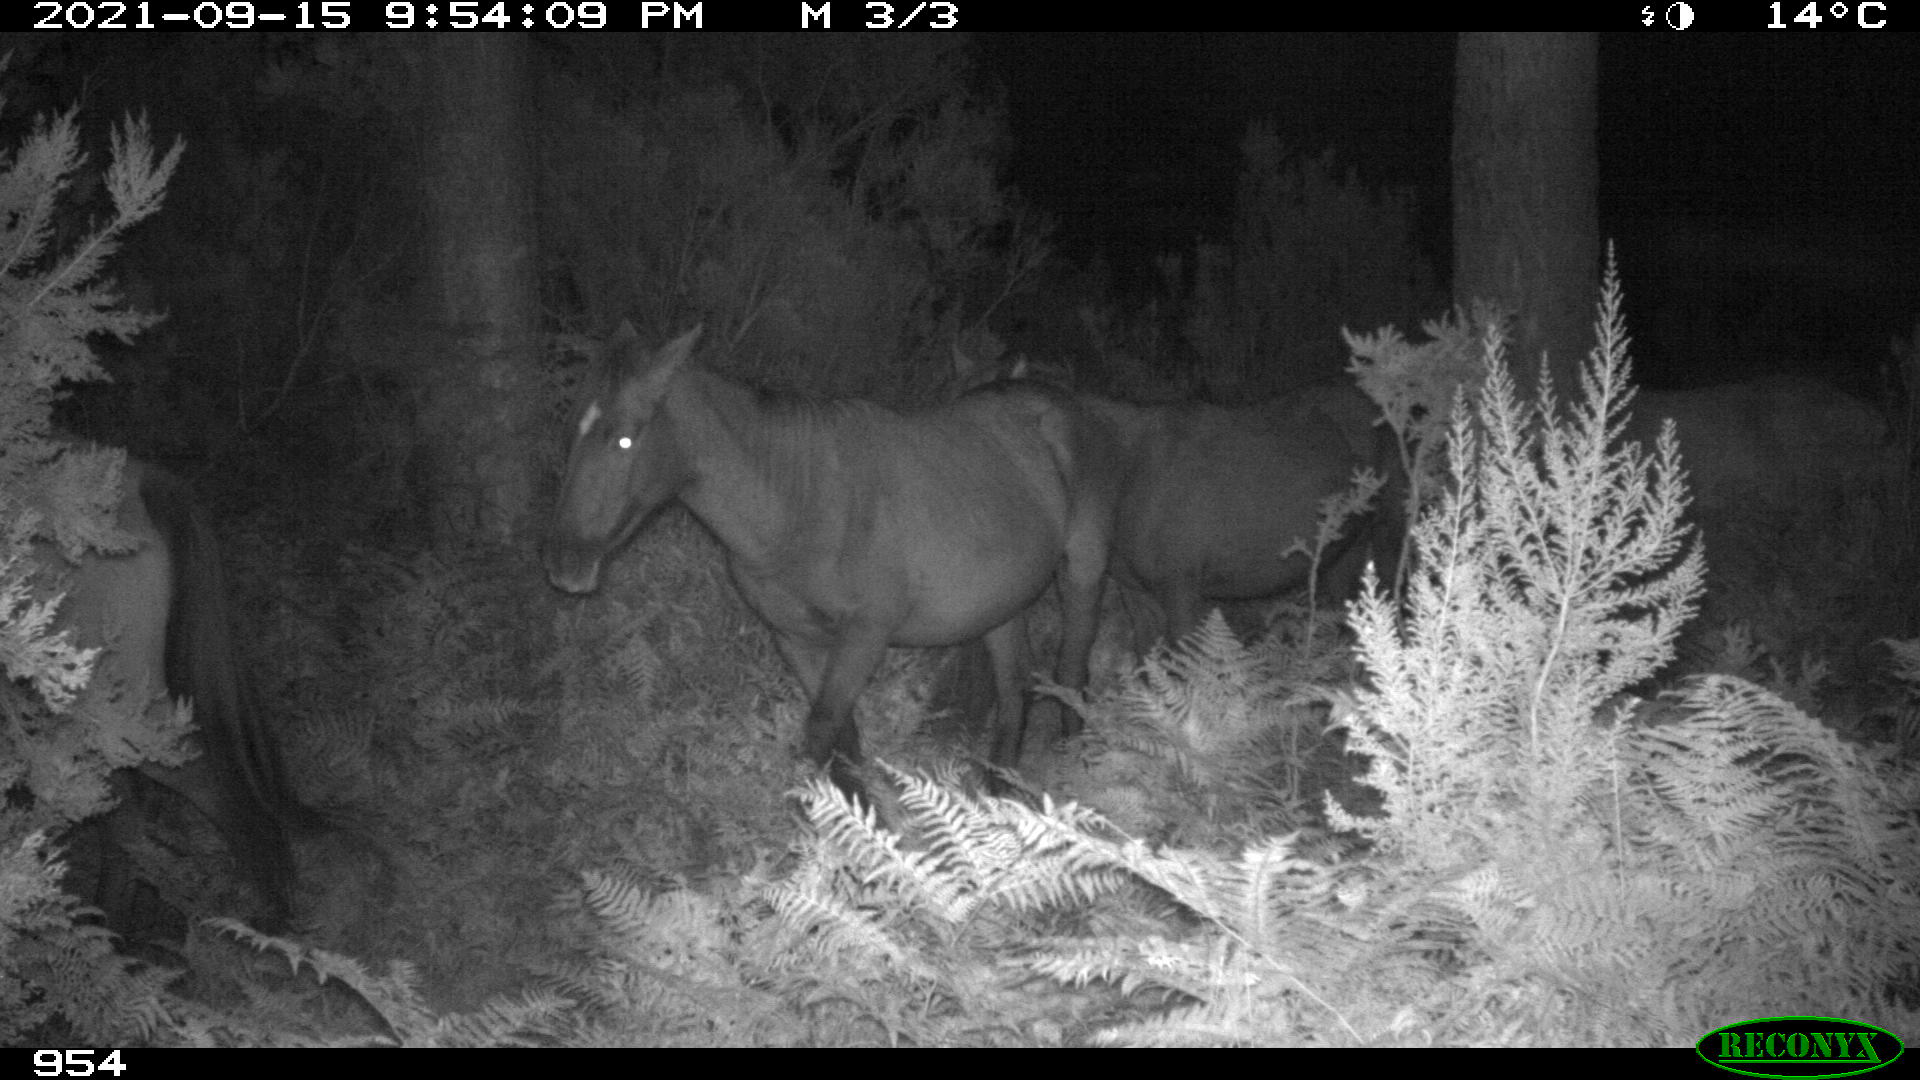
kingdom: Animalia
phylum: Chordata
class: Mammalia
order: Perissodactyla
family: Equidae
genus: Equus
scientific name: Equus caballus
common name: Horse
